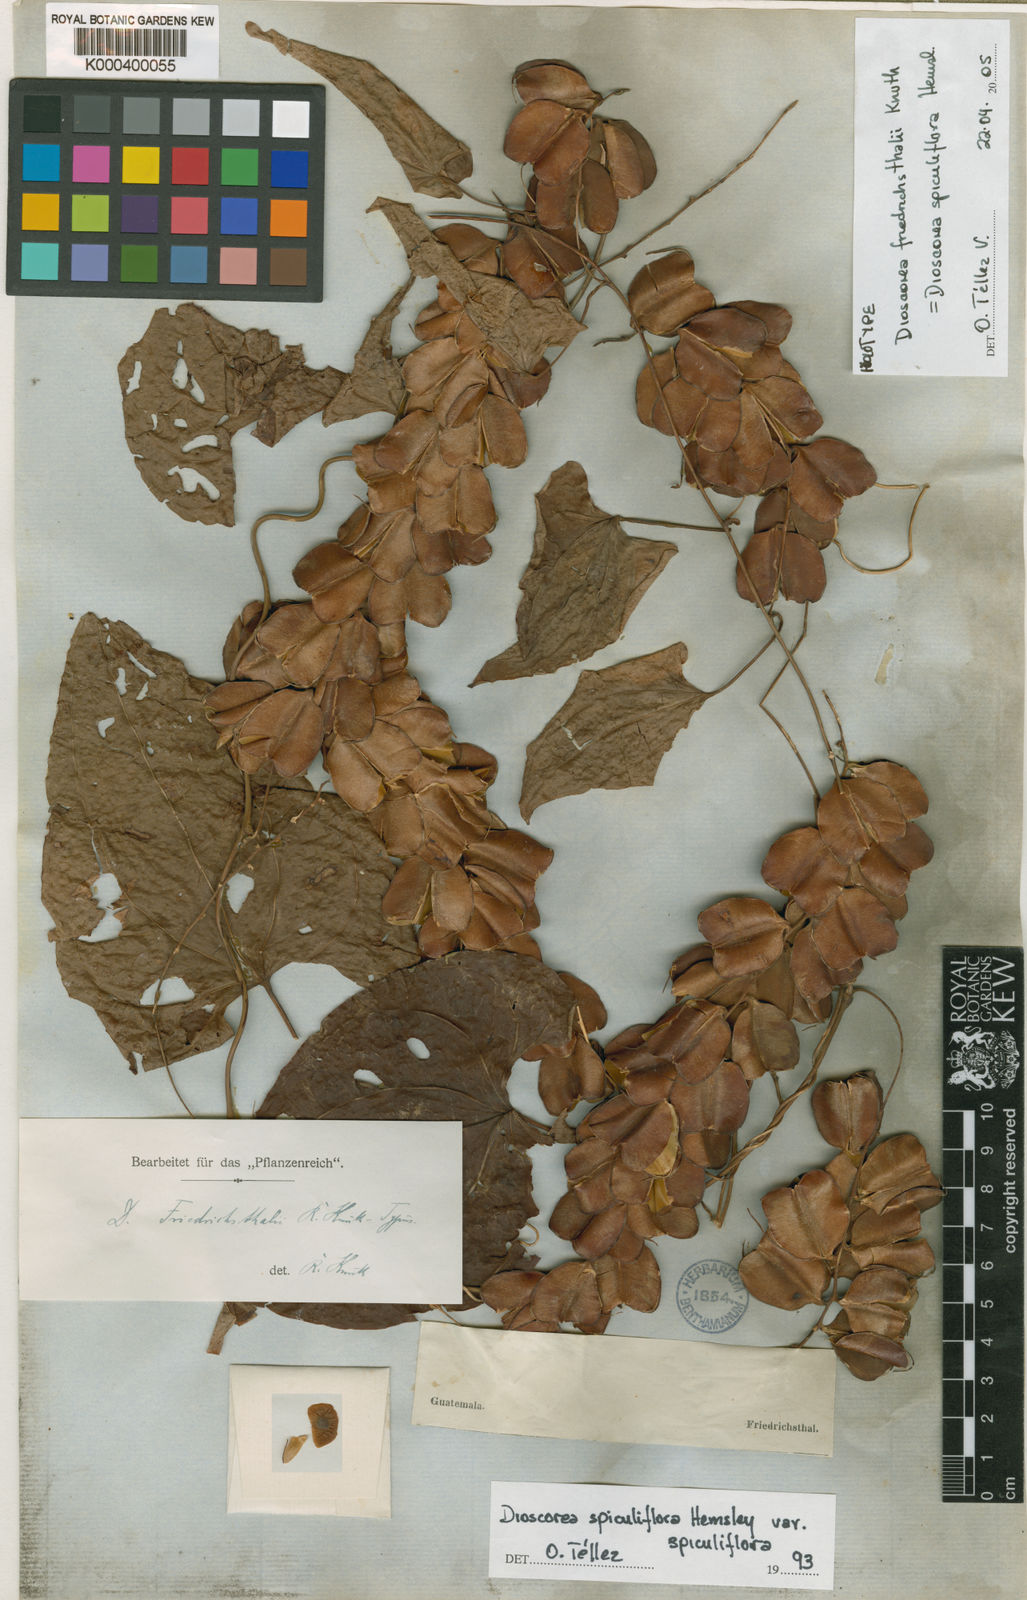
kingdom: Plantae
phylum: Tracheophyta
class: Liliopsida
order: Dioscoreales
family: Dioscoreaceae
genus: Dioscorea
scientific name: Dioscorea spiculiflora
